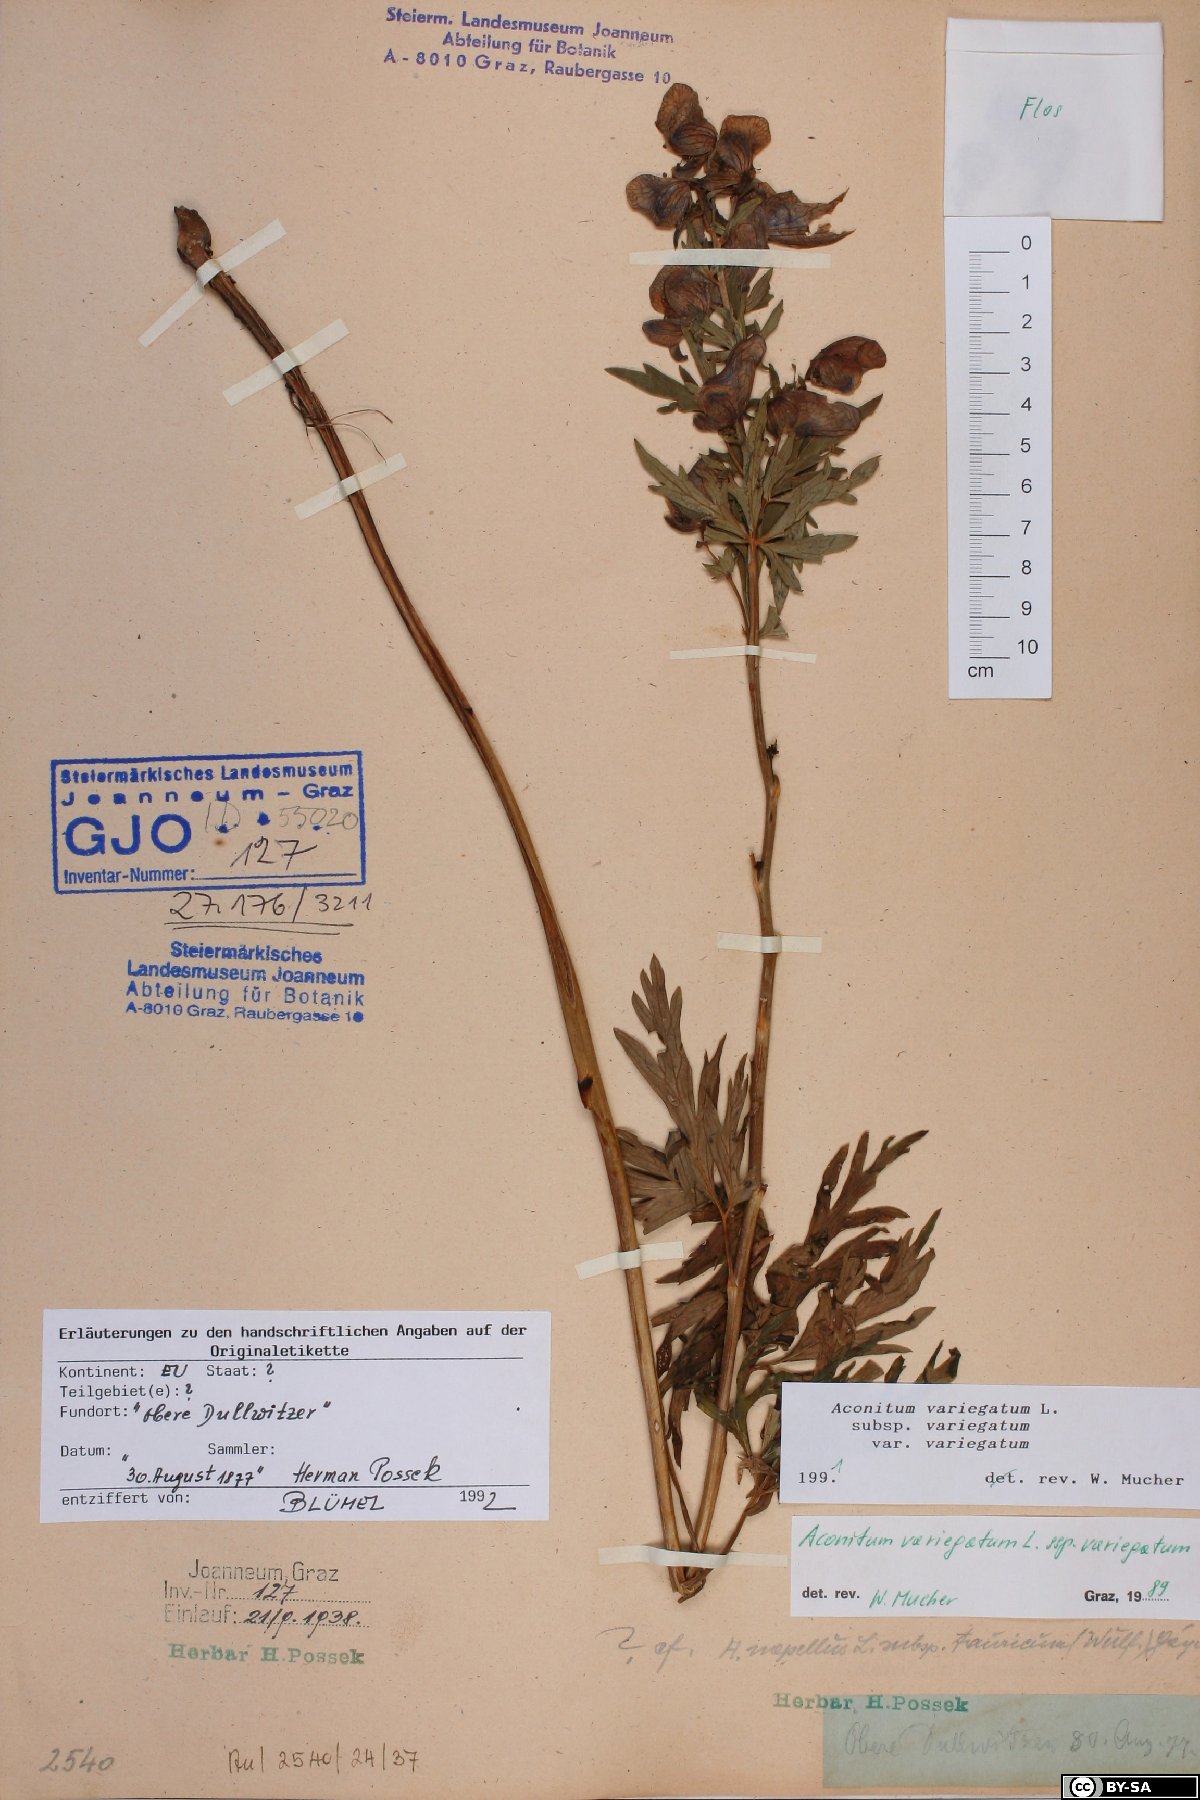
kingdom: Plantae
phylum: Tracheophyta
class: Magnoliopsida
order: Ranunculales
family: Ranunculaceae
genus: Aconitum
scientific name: Aconitum variegatum
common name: Manchurian monkshood
